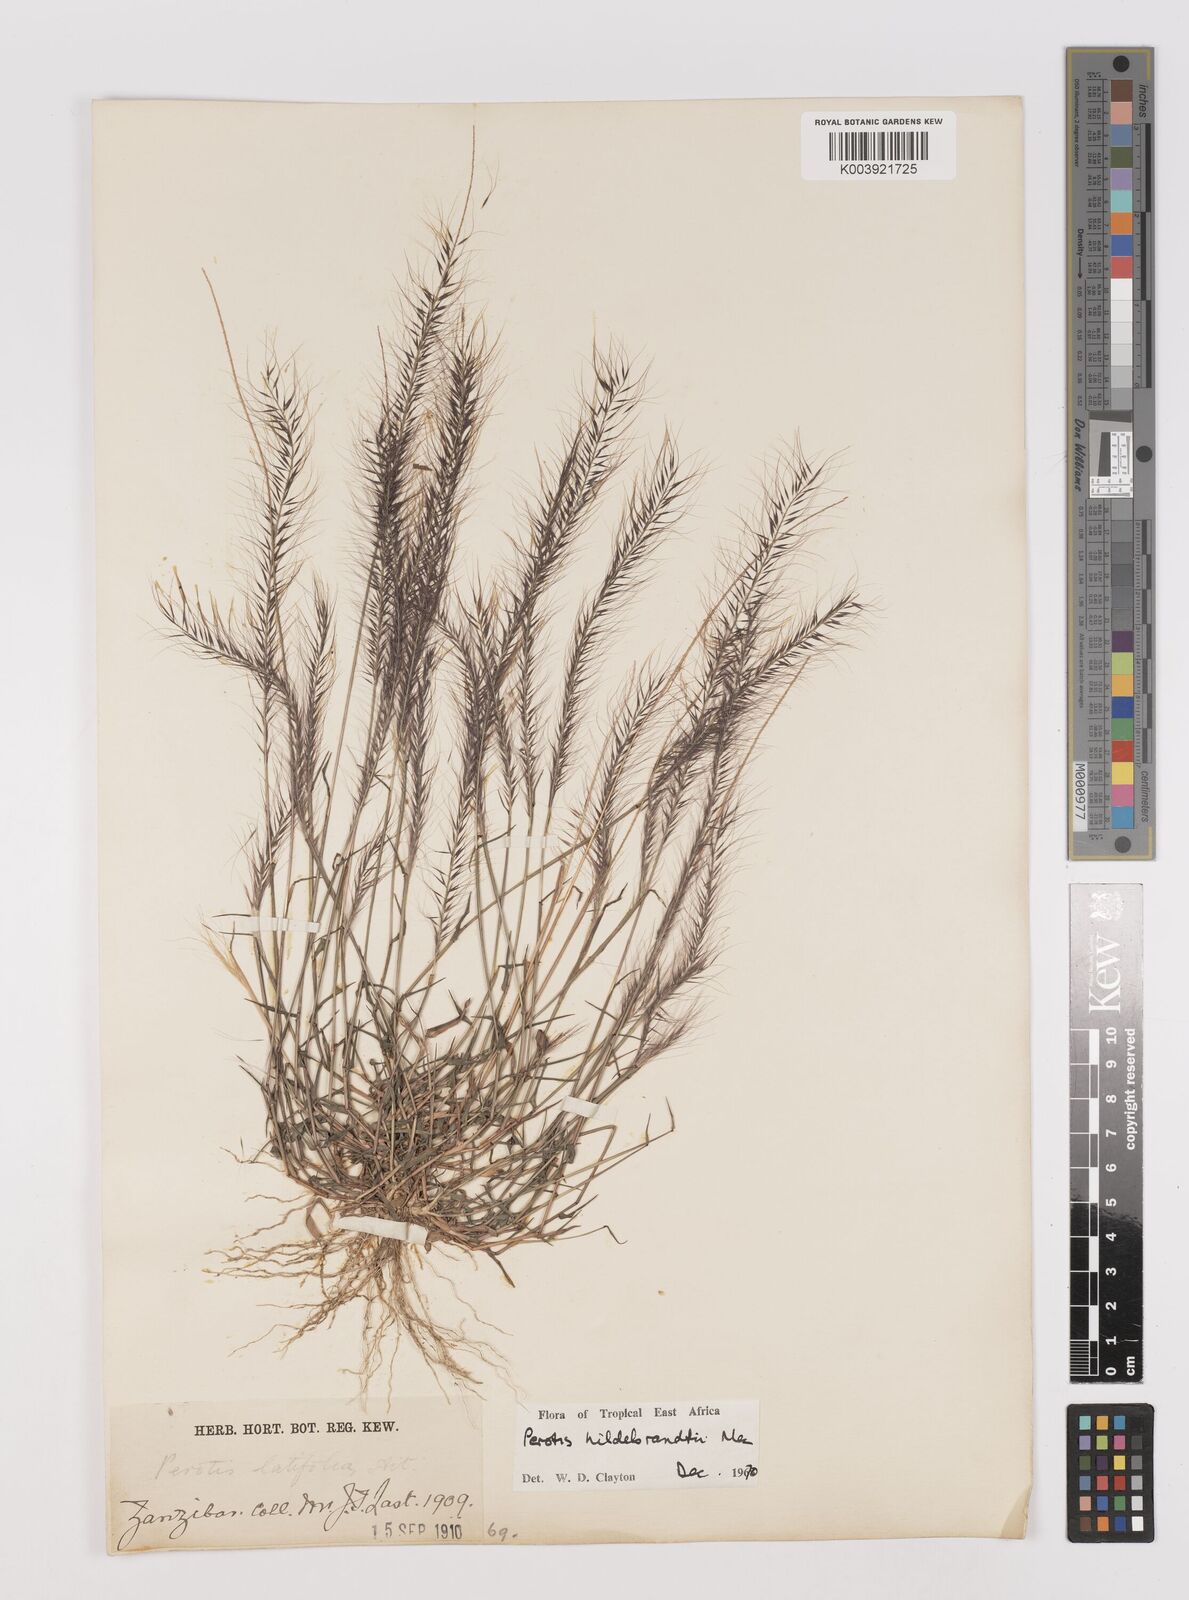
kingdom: Plantae
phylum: Tracheophyta
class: Liliopsida
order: Poales
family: Poaceae
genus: Perotis
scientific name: Perotis hildebrandtii
